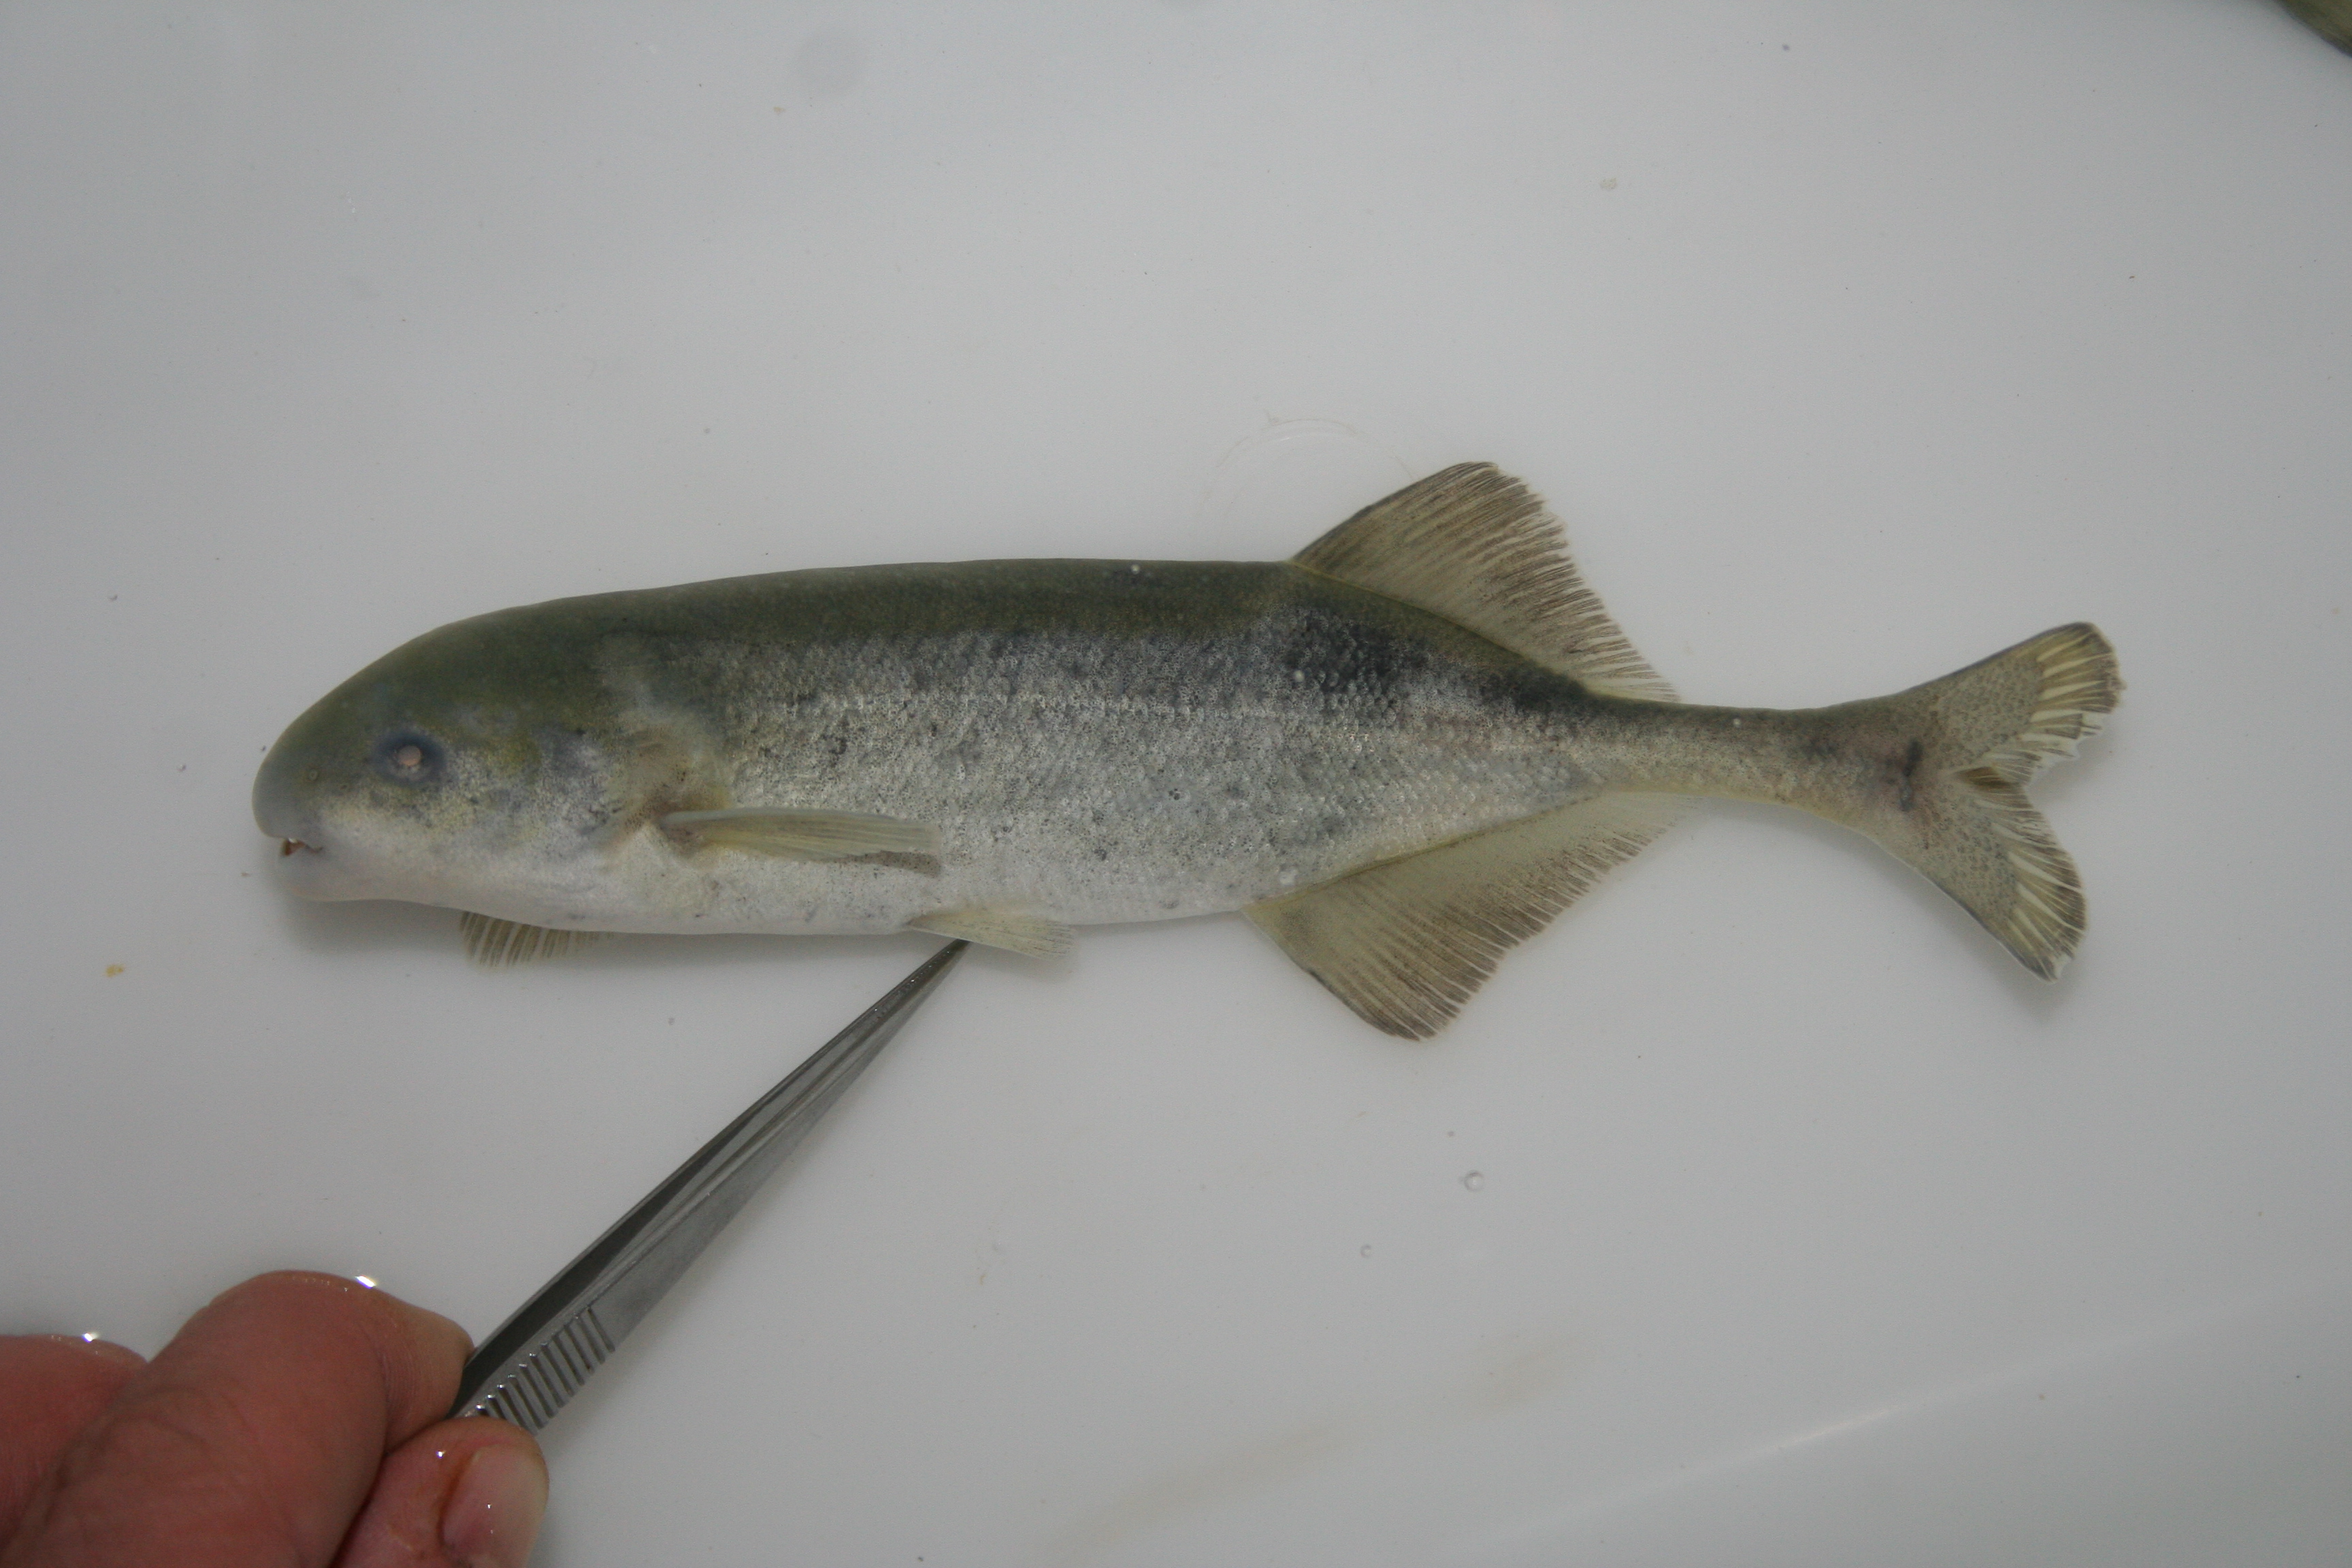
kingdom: Animalia
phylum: Chordata
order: Osteoglossiformes
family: Mormyridae
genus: Hippopotamyrus
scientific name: Hippopotamyrus
